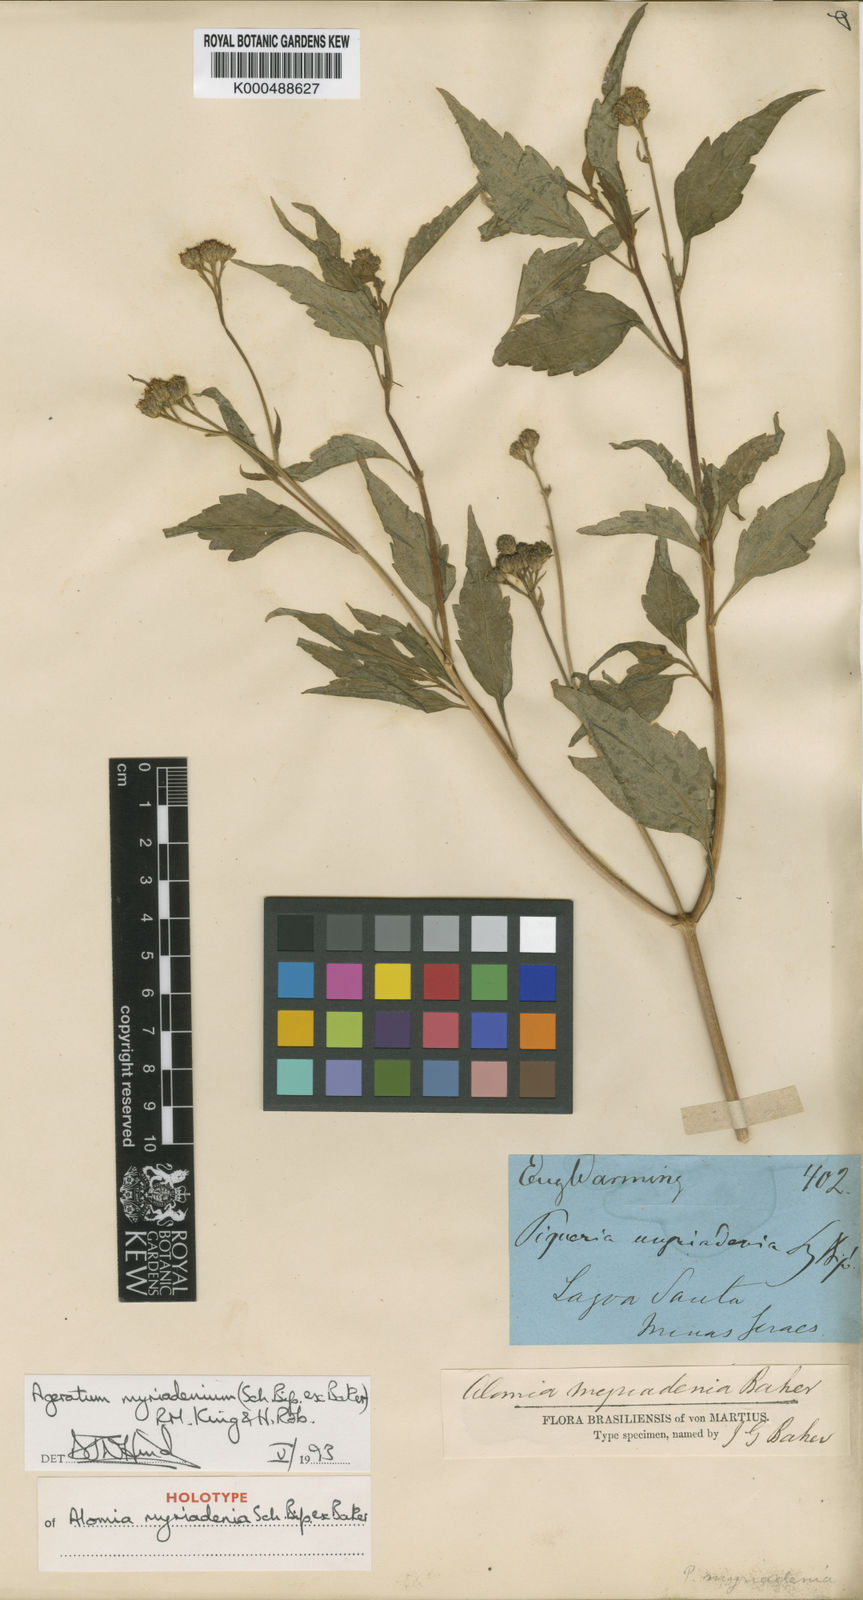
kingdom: Plantae
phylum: Tracheophyta
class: Magnoliopsida
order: Asterales
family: Asteraceae
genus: Ageratum
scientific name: Ageratum myriadenium
